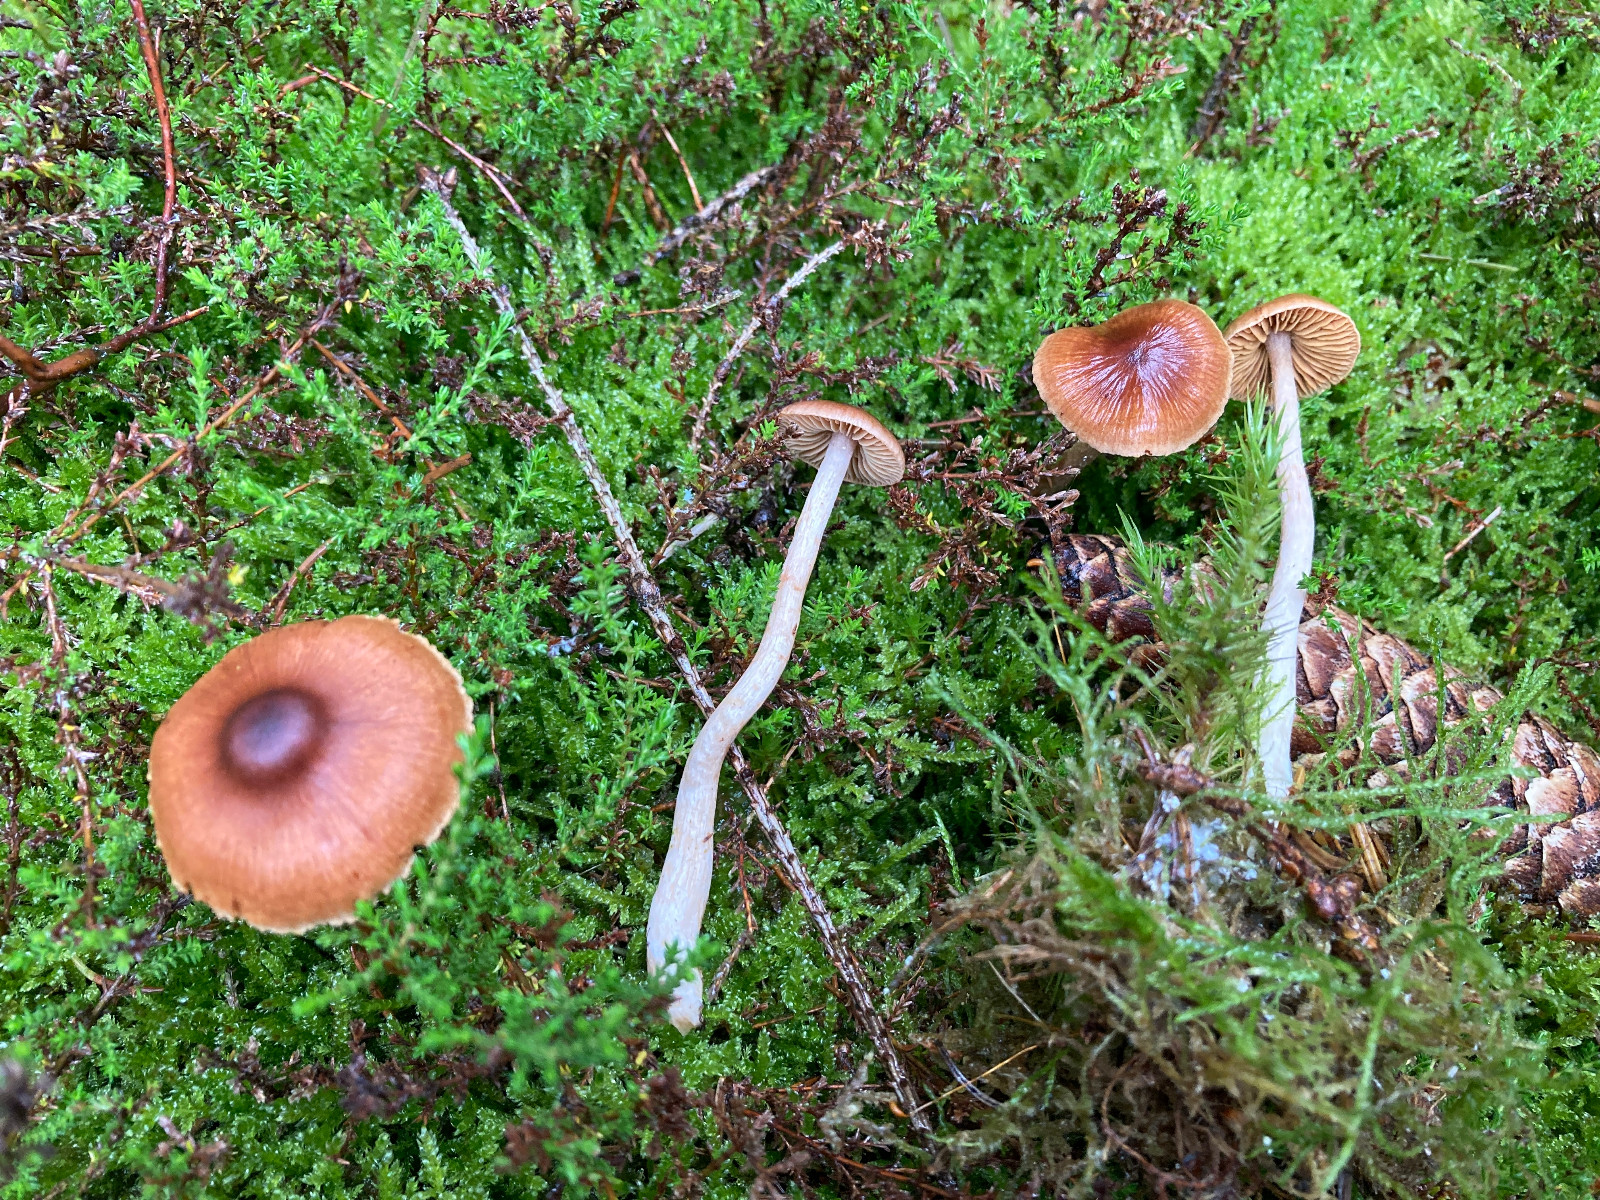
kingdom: Fungi
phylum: Basidiomycota
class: Agaricomycetes
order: Agaricales
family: Cortinariaceae
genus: Cortinarius
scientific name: Cortinarius tenuifulvescens
